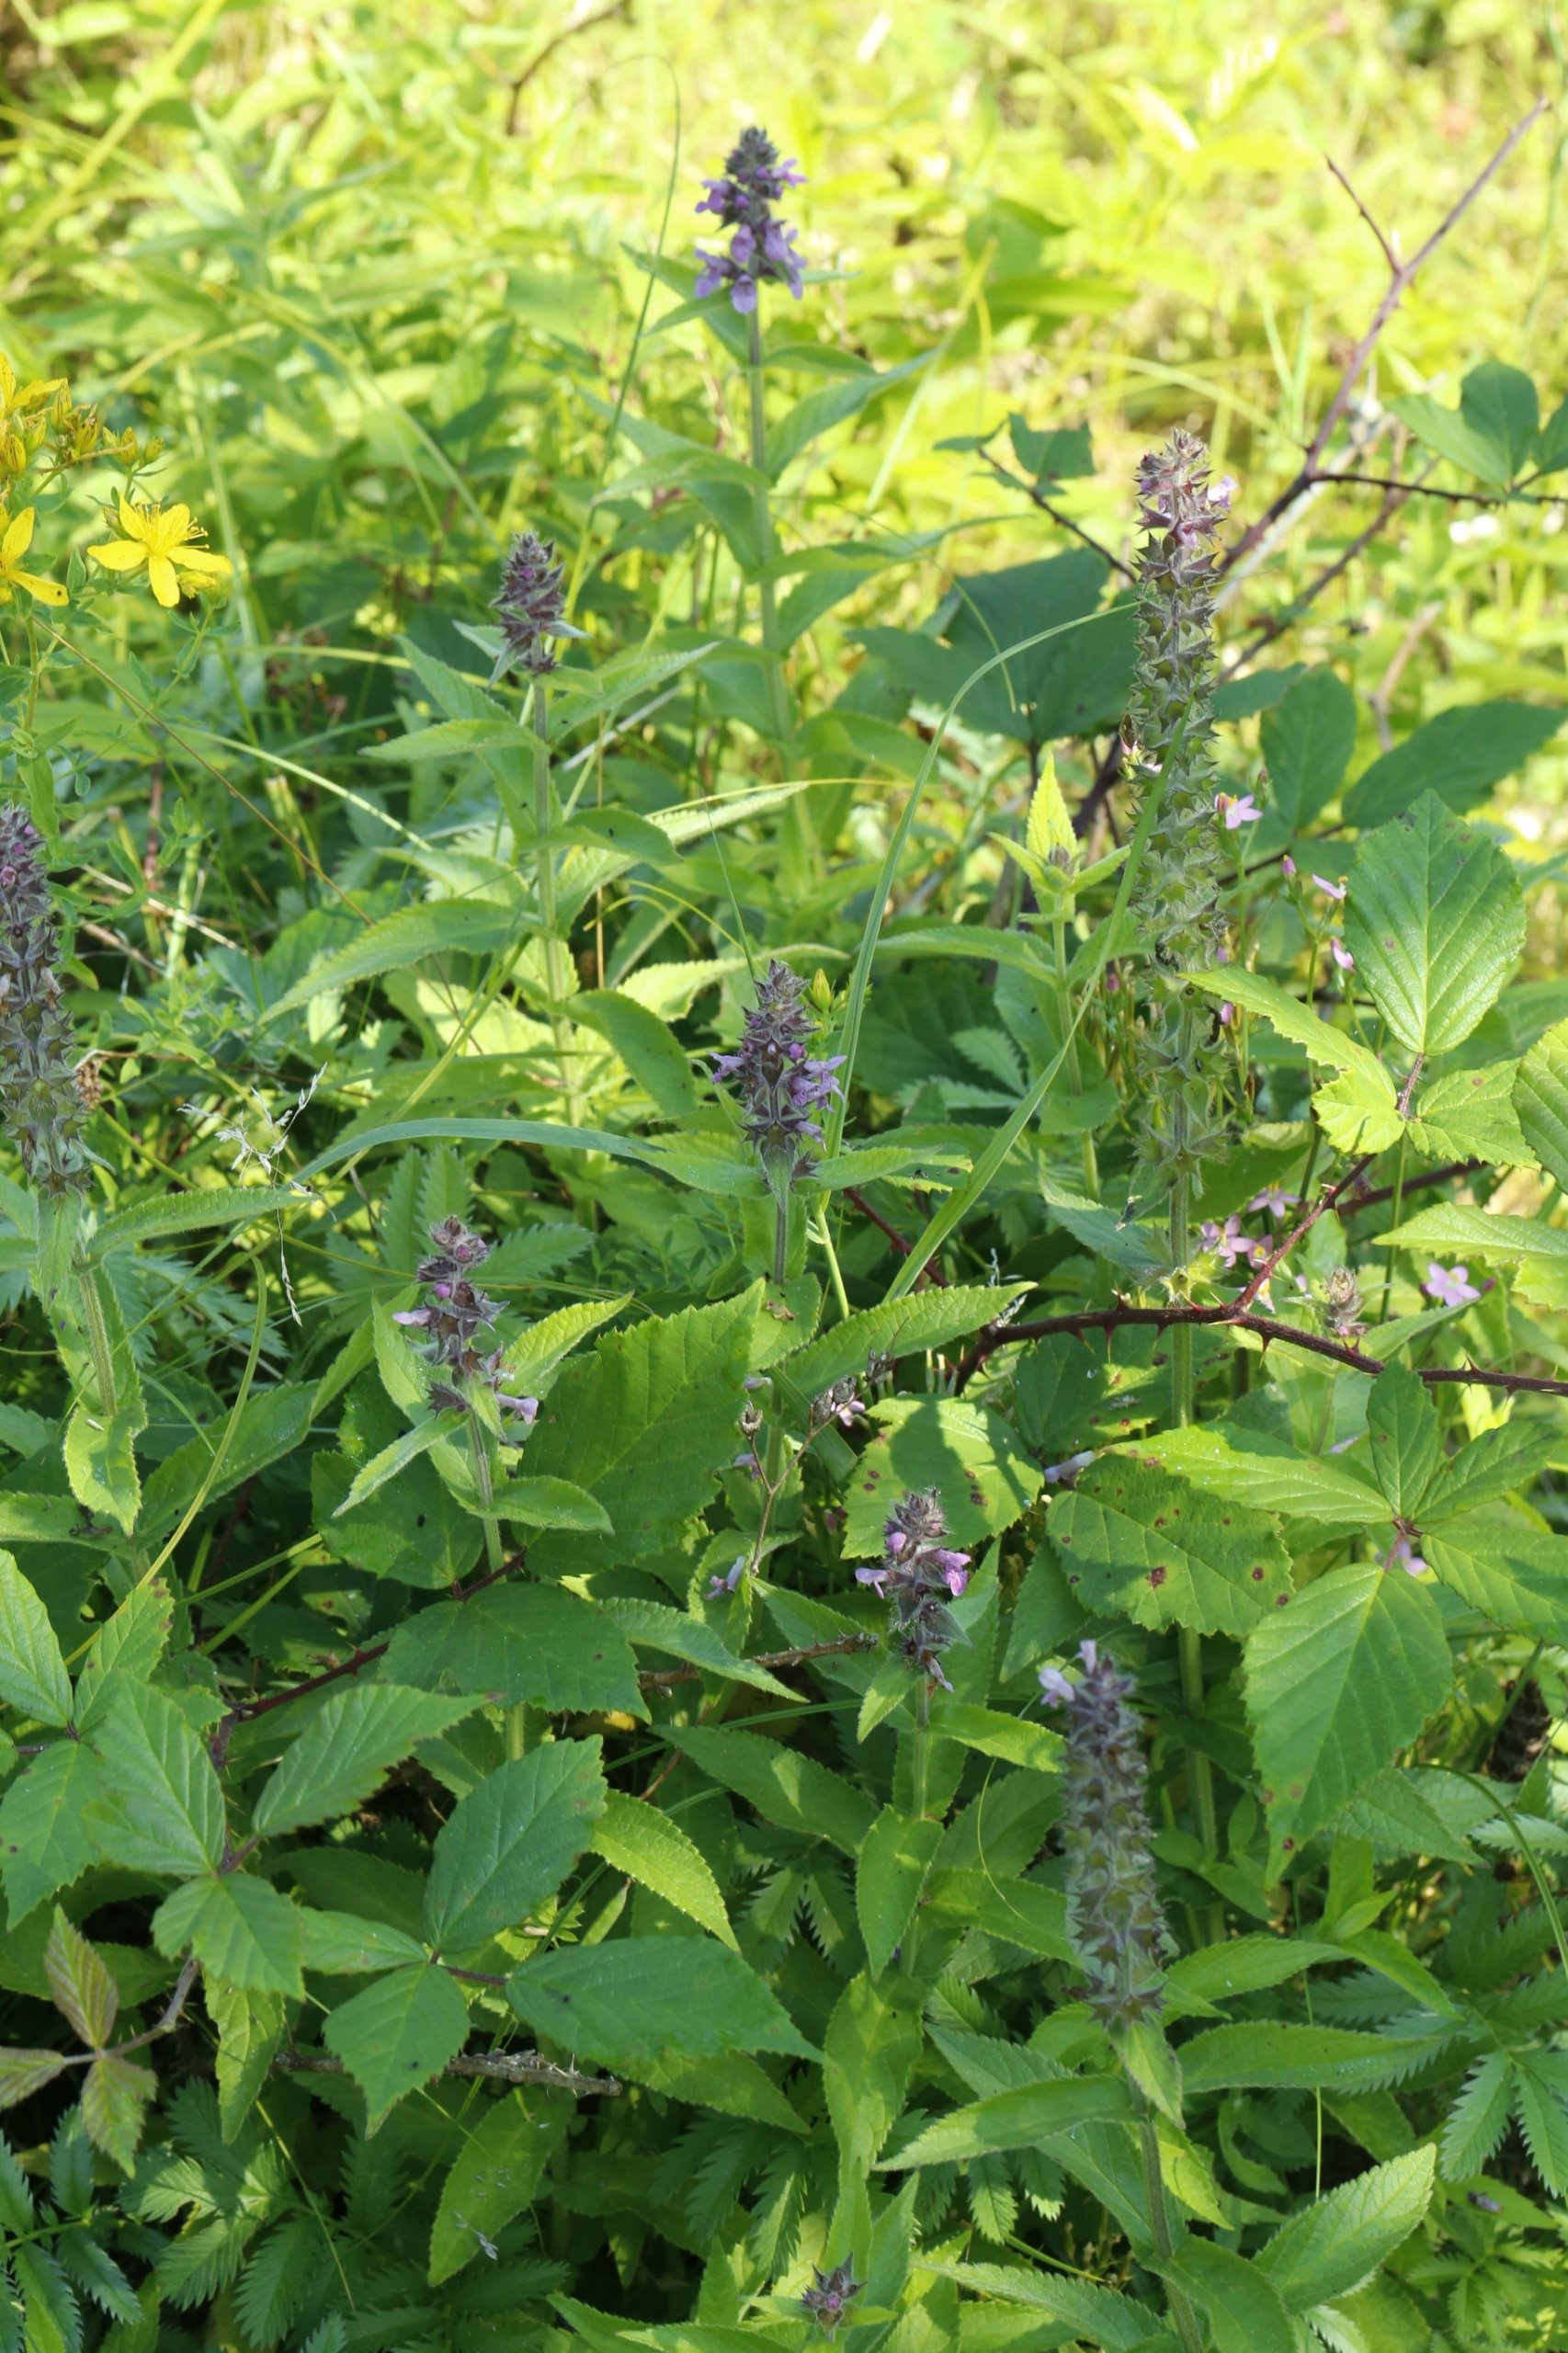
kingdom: Plantae
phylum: Tracheophyta
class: Magnoliopsida
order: Lamiales
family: Lamiaceae
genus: Stachys
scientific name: Stachys palustris
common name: Kær-galtetand
